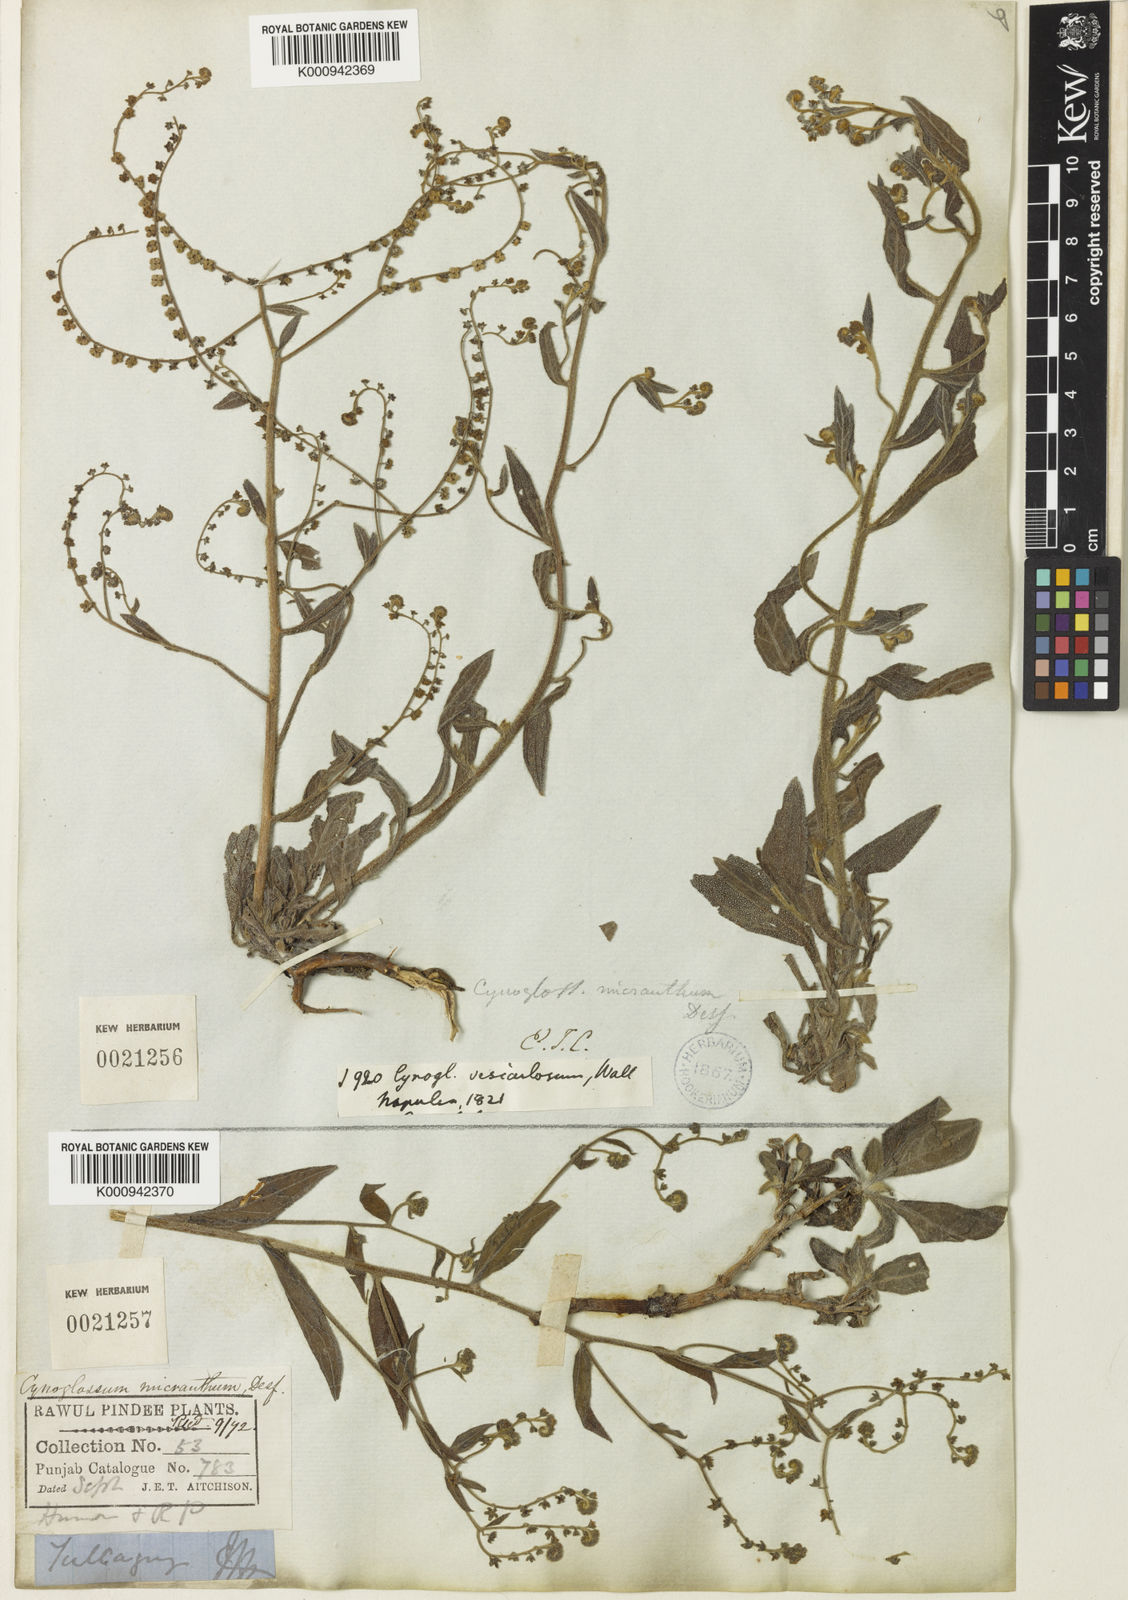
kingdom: Plantae
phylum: Tracheophyta
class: Magnoliopsida
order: Boraginales
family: Boraginaceae
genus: Cynoglossum
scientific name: Cynoglossum
